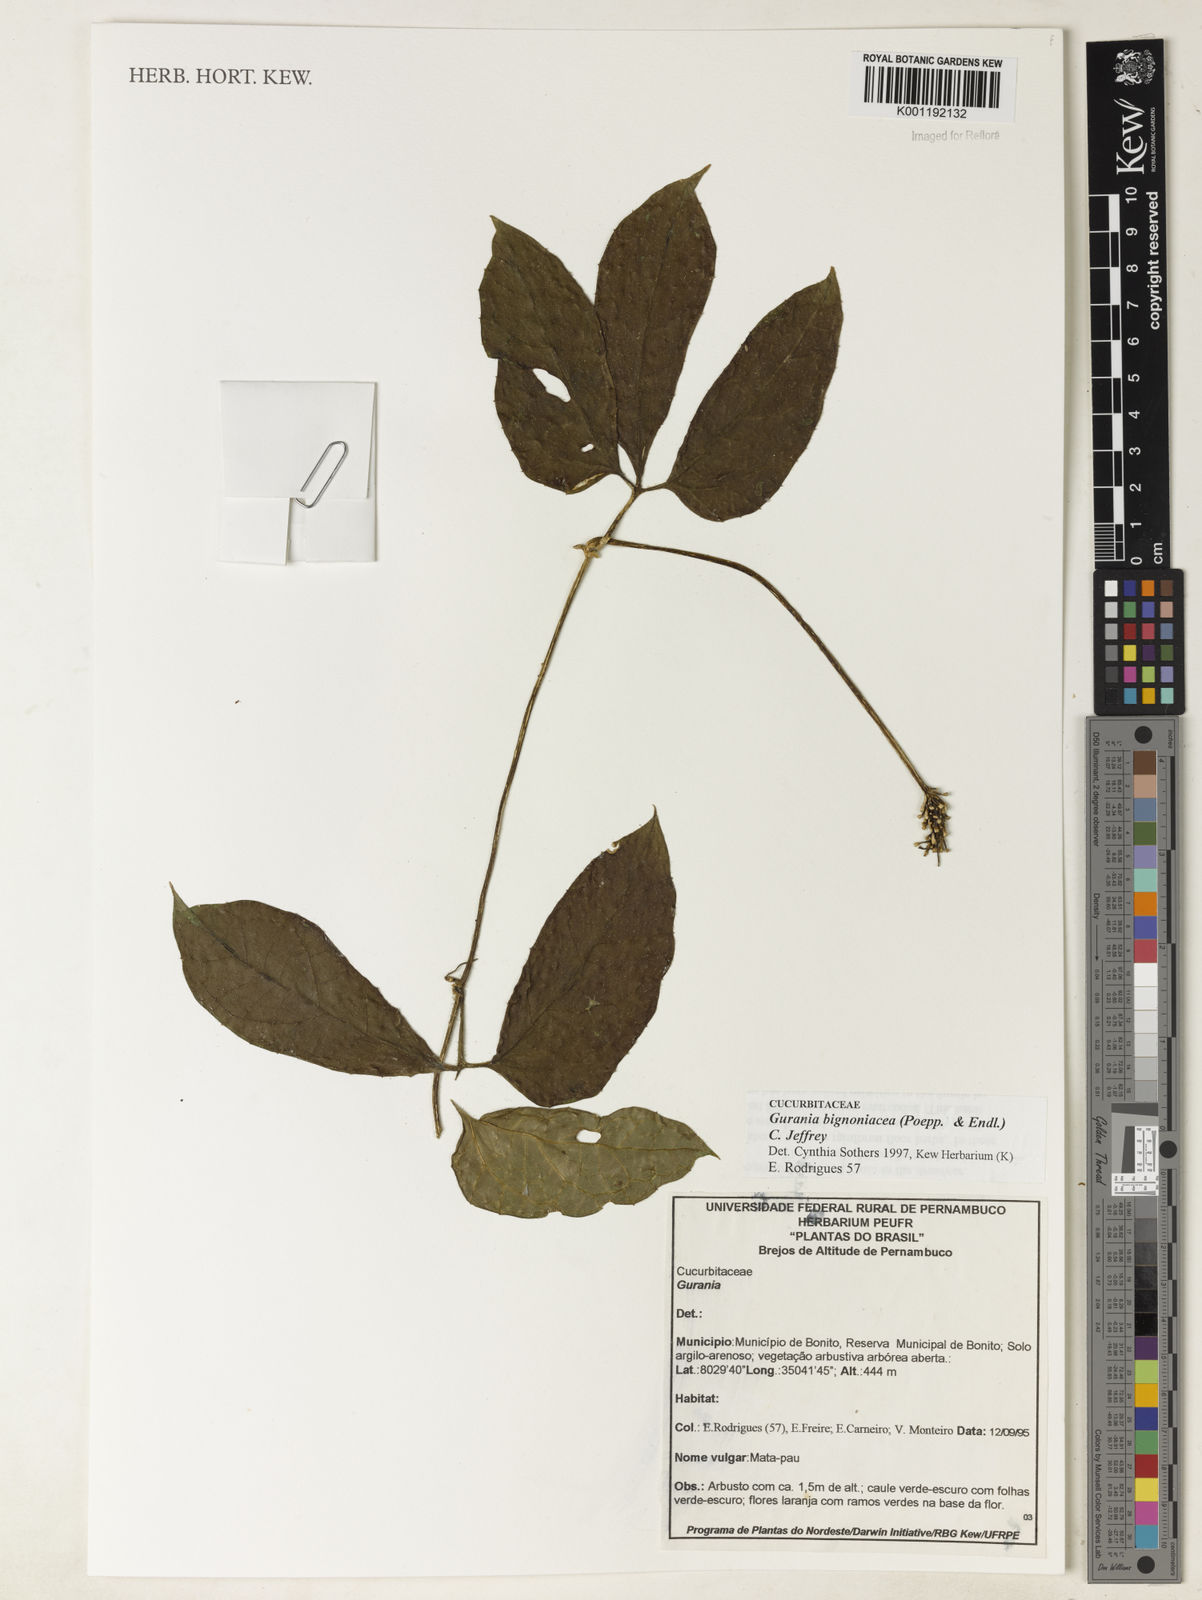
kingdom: Plantae
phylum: Tracheophyta
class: Magnoliopsida
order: Cucurbitales
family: Cucurbitaceae
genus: Gurania
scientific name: Gurania bignoniacea
